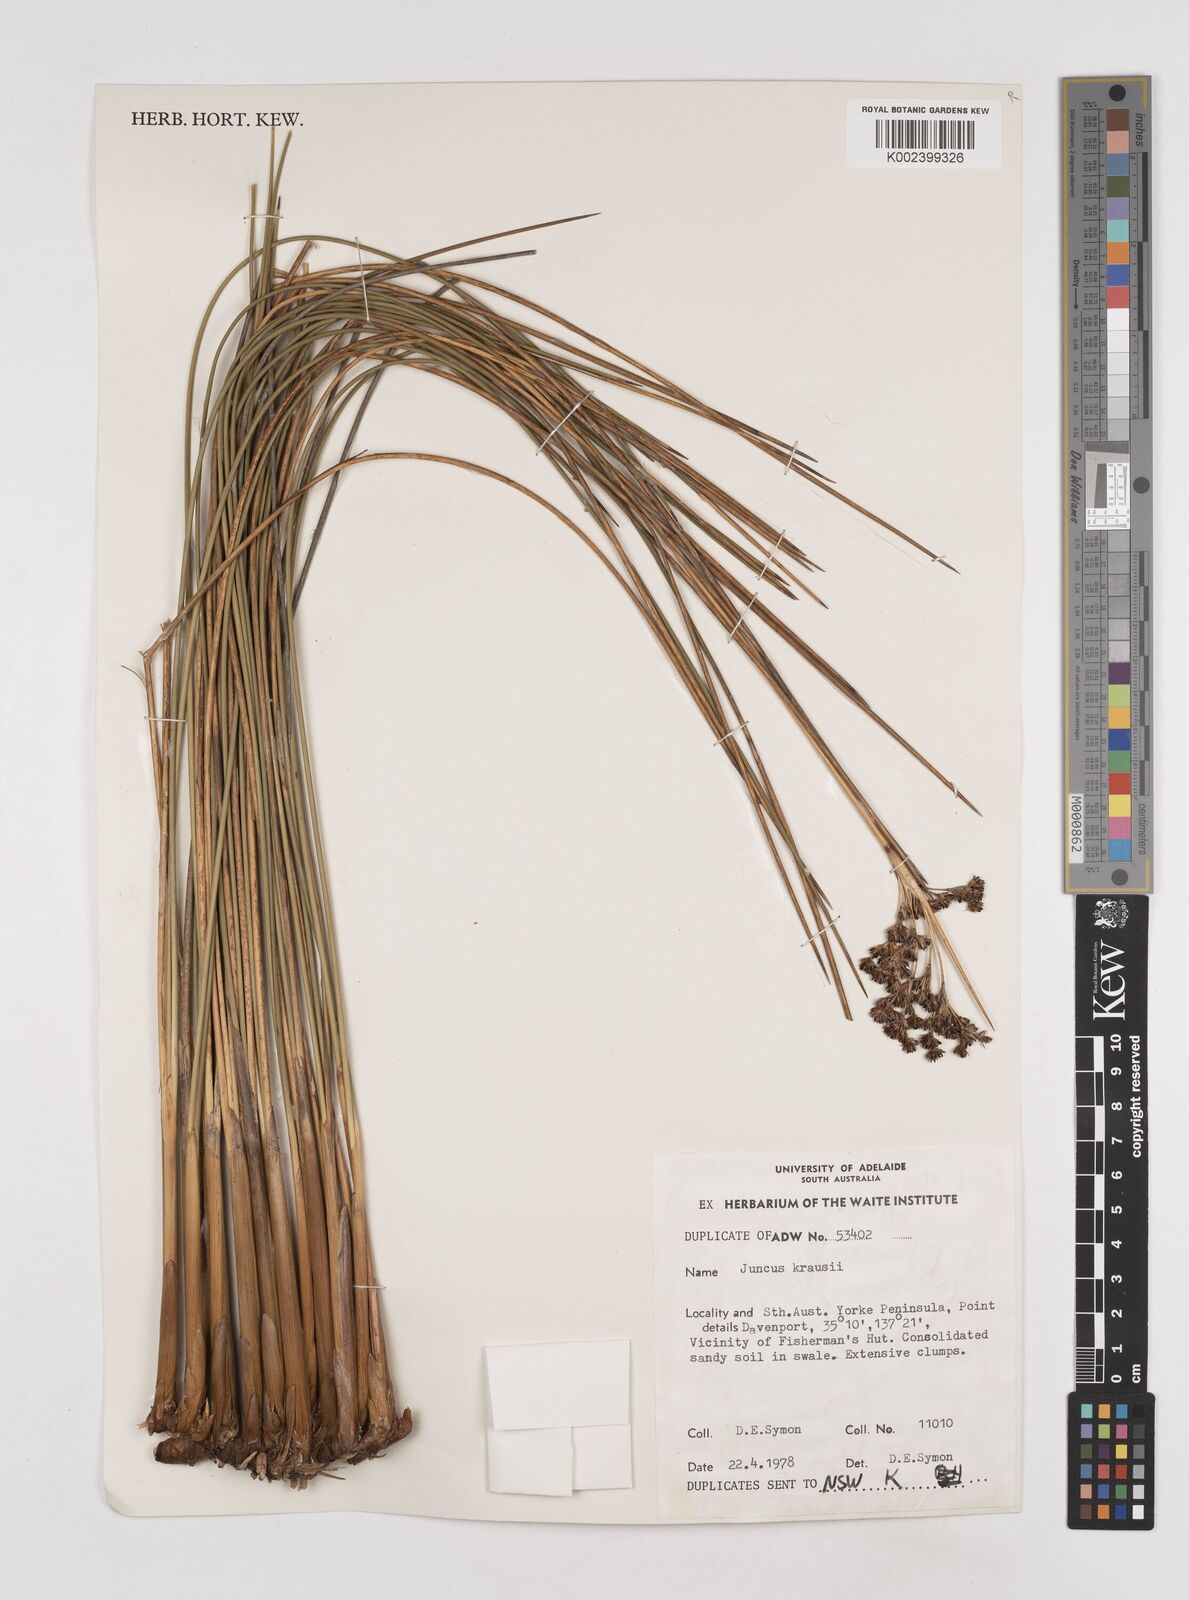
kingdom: Plantae
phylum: Tracheophyta
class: Liliopsida
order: Poales
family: Juncaceae
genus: Juncus
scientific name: Juncus kraussii
